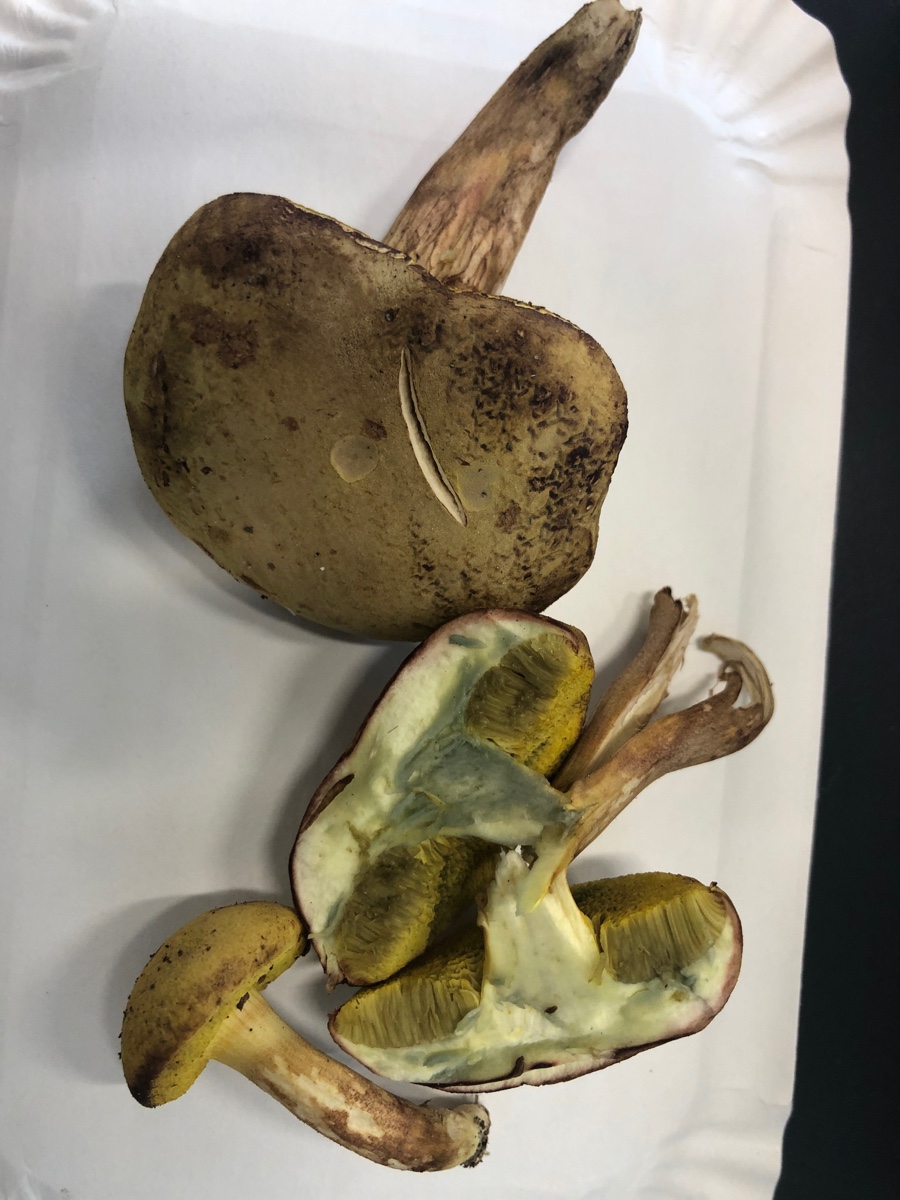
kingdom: Fungi
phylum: Basidiomycota
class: Agaricomycetes
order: Boletales
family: Boletaceae
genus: Xerocomus
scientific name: Xerocomus ferrugineus
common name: vaskeskinds-rørhat
